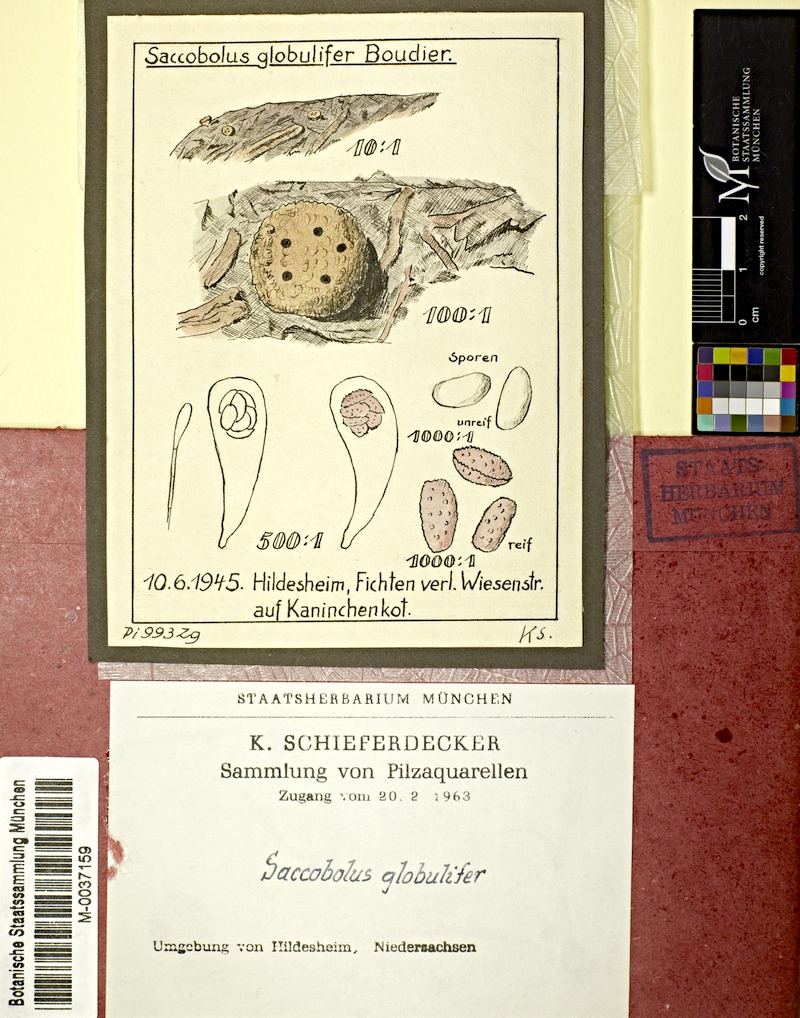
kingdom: Fungi
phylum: Ascomycota
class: Pezizomycetes
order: Pezizales
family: Ascobolaceae
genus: Saccobolus
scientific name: Saccobolus dilutellus
